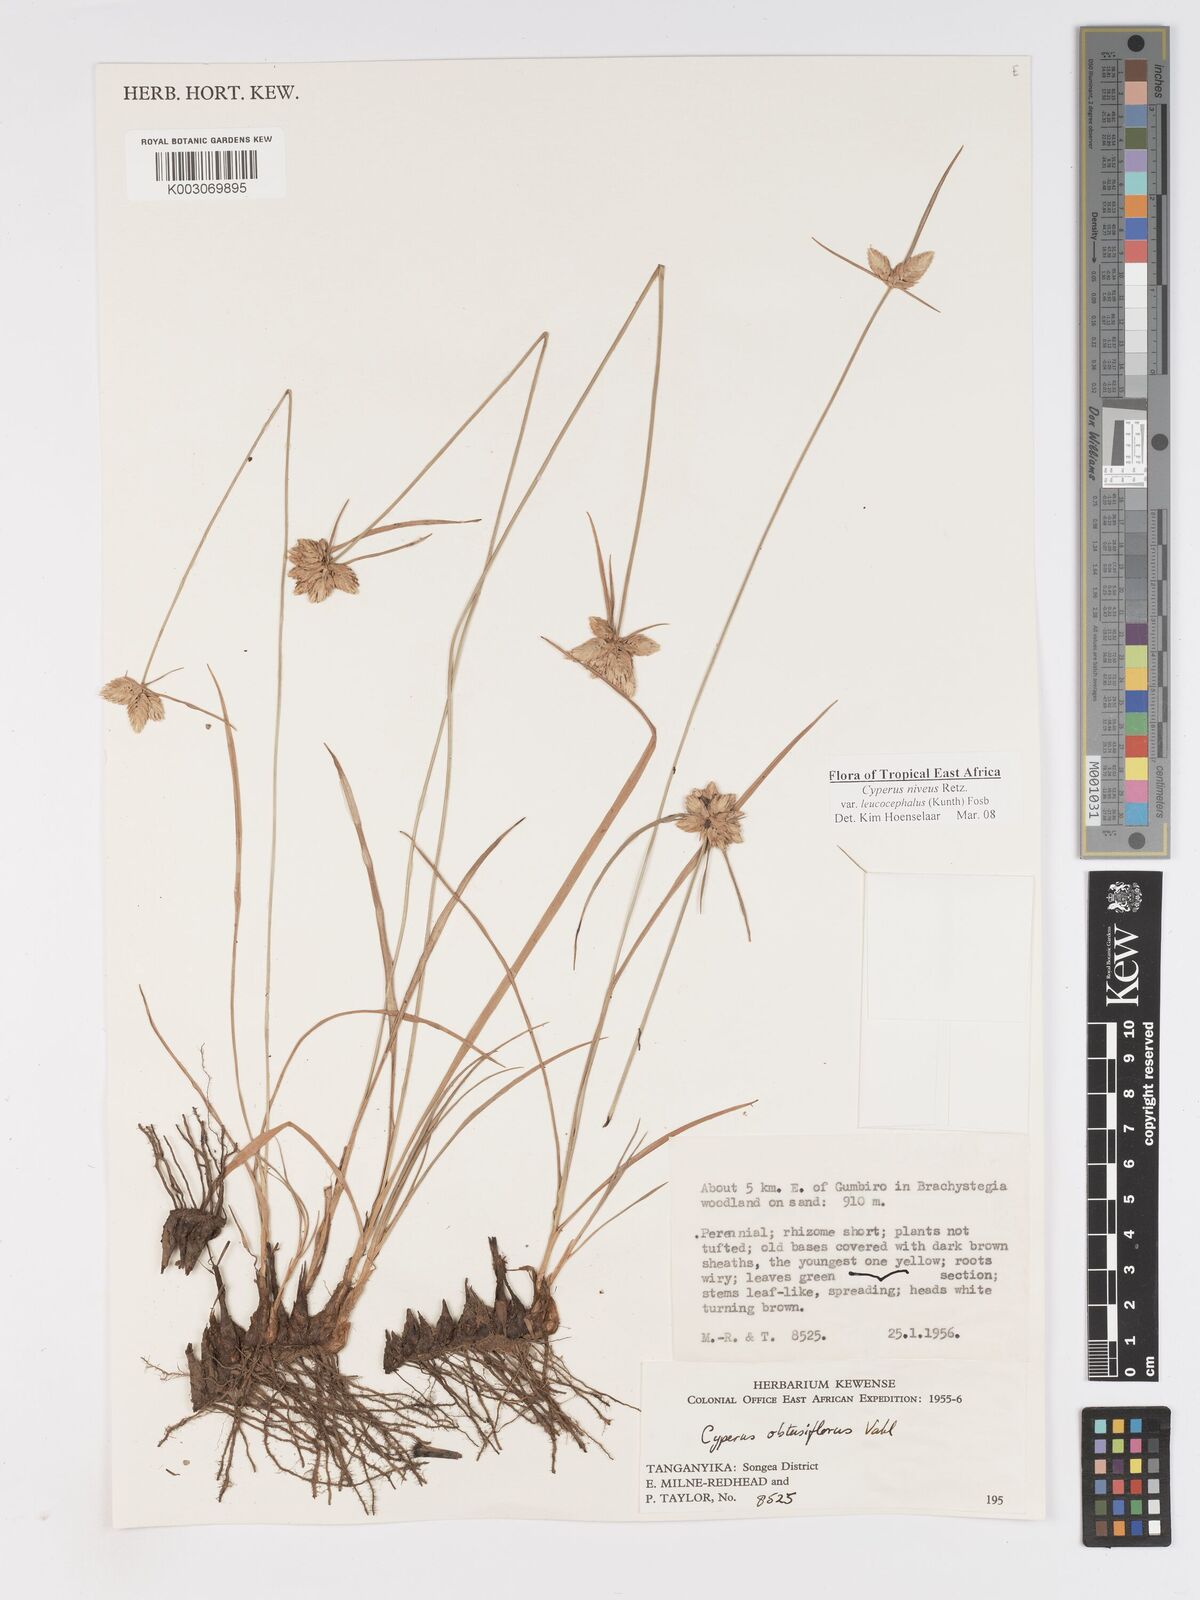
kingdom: Plantae
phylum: Tracheophyta
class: Liliopsida
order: Poales
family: Cyperaceae
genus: Cyperus
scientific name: Cyperus niveus
